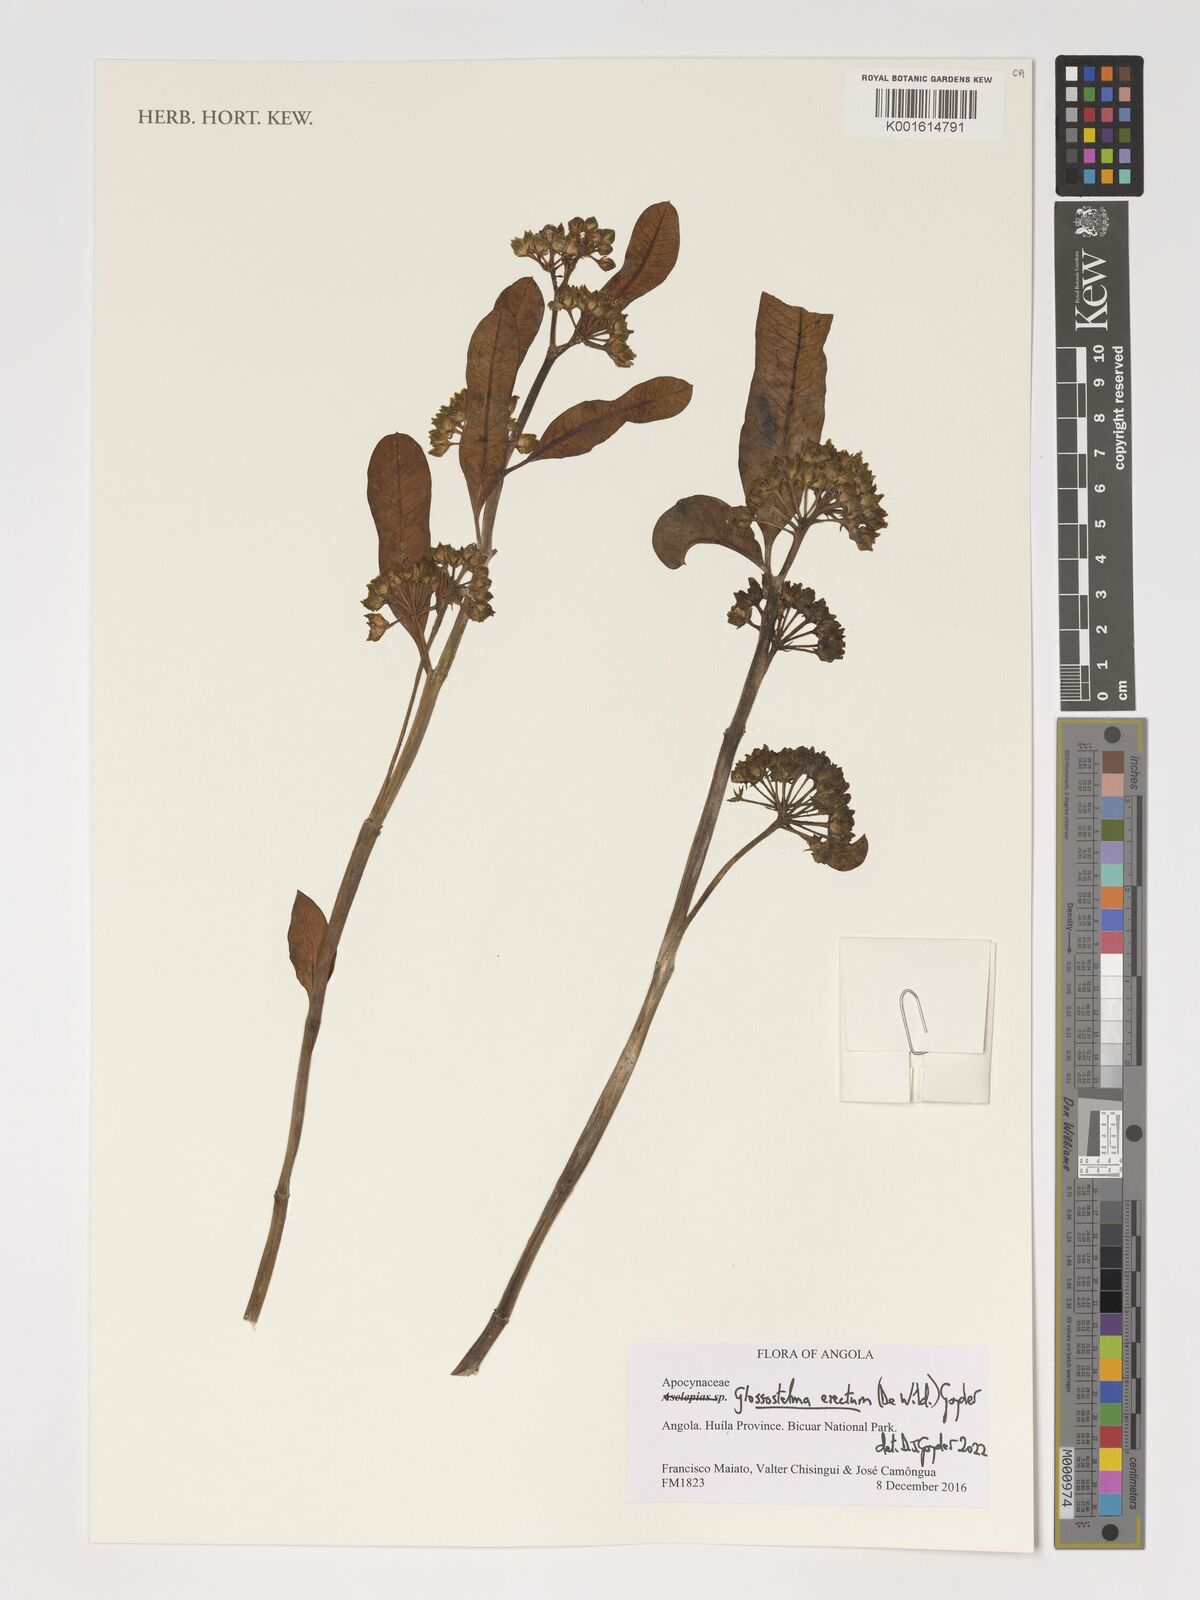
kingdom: Plantae
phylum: Tracheophyta
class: Magnoliopsida
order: Gentianales
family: Apocynaceae
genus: Glossostelma
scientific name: Glossostelma erectum
